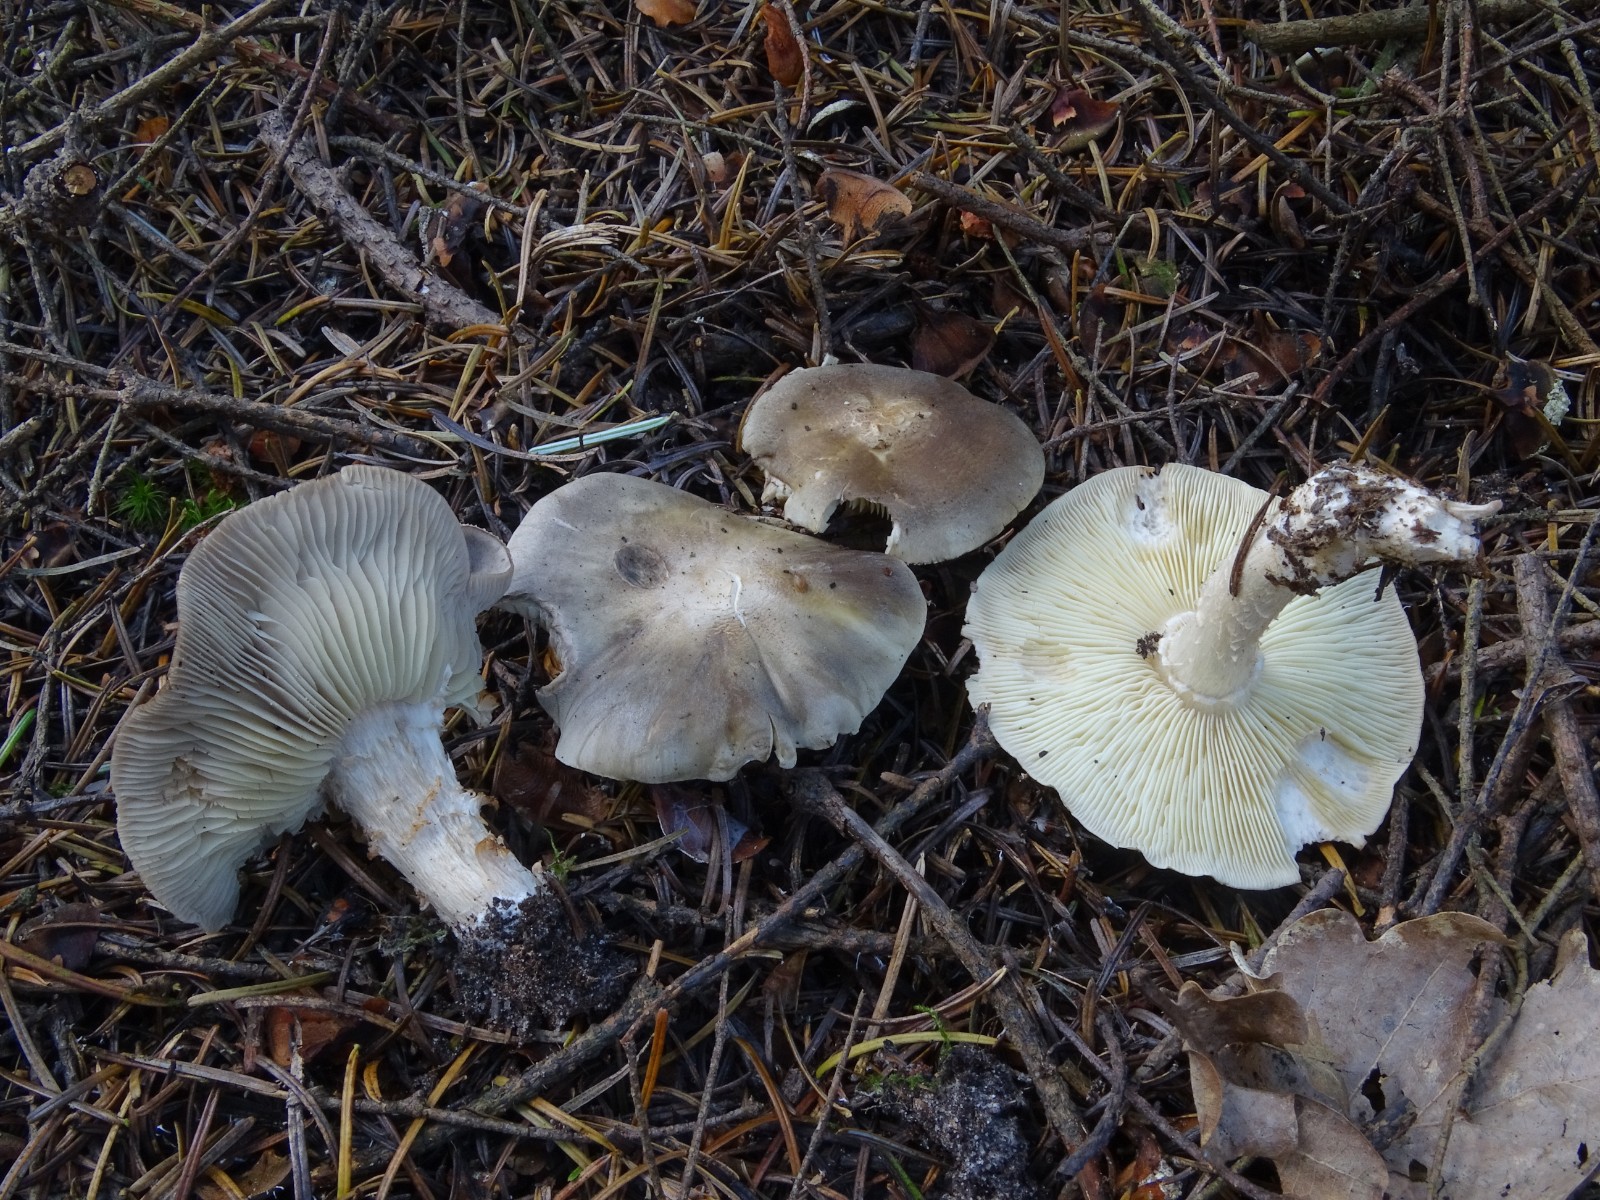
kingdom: Fungi
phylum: Basidiomycota
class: Agaricomycetes
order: Agaricales
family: Tricholomataceae
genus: Tricholoma
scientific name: Tricholoma sudum
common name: tør ridderhat
